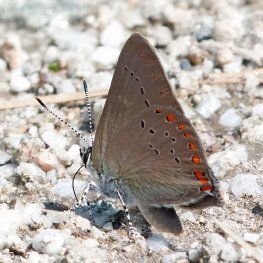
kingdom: Animalia
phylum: Arthropoda
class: Insecta
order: Lepidoptera
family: Lycaenidae
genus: Harkenclenus
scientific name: Harkenclenus titus
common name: Coral Hairstreak
